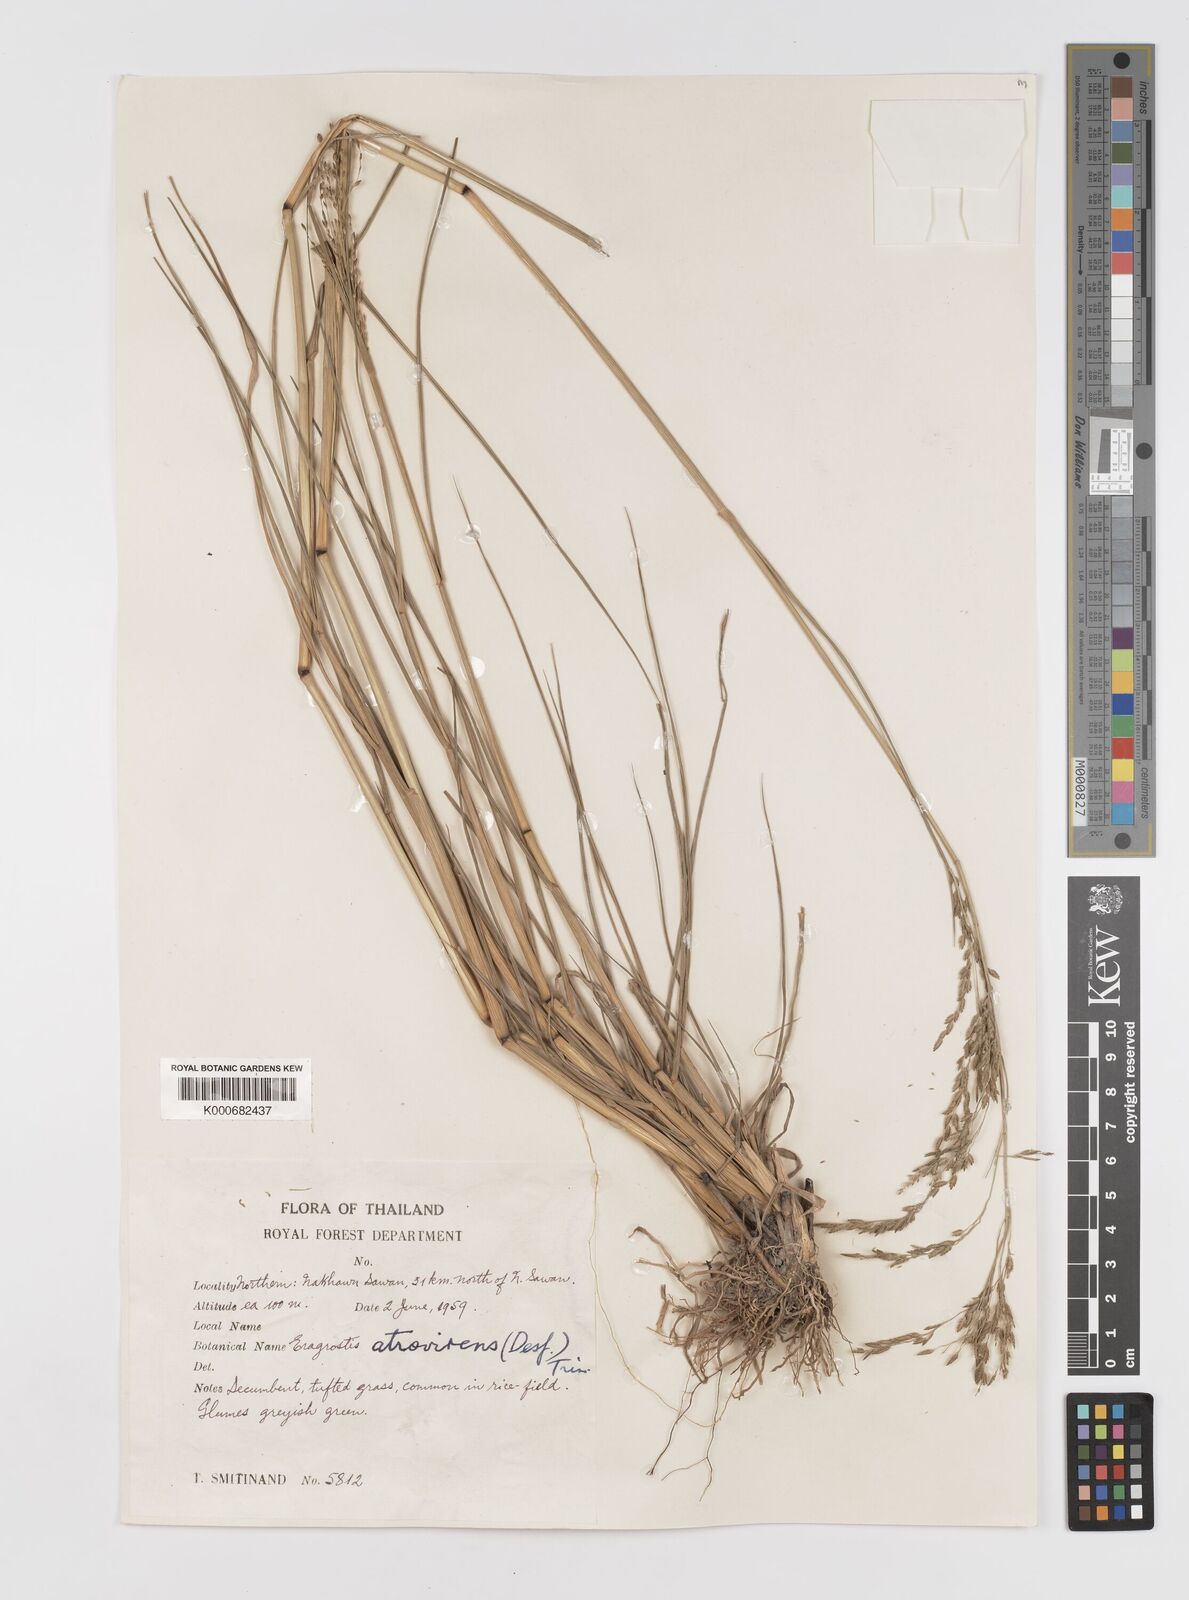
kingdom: Plantae
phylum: Tracheophyta
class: Liliopsida
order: Poales
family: Poaceae
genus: Eragrostis
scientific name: Eragrostis
